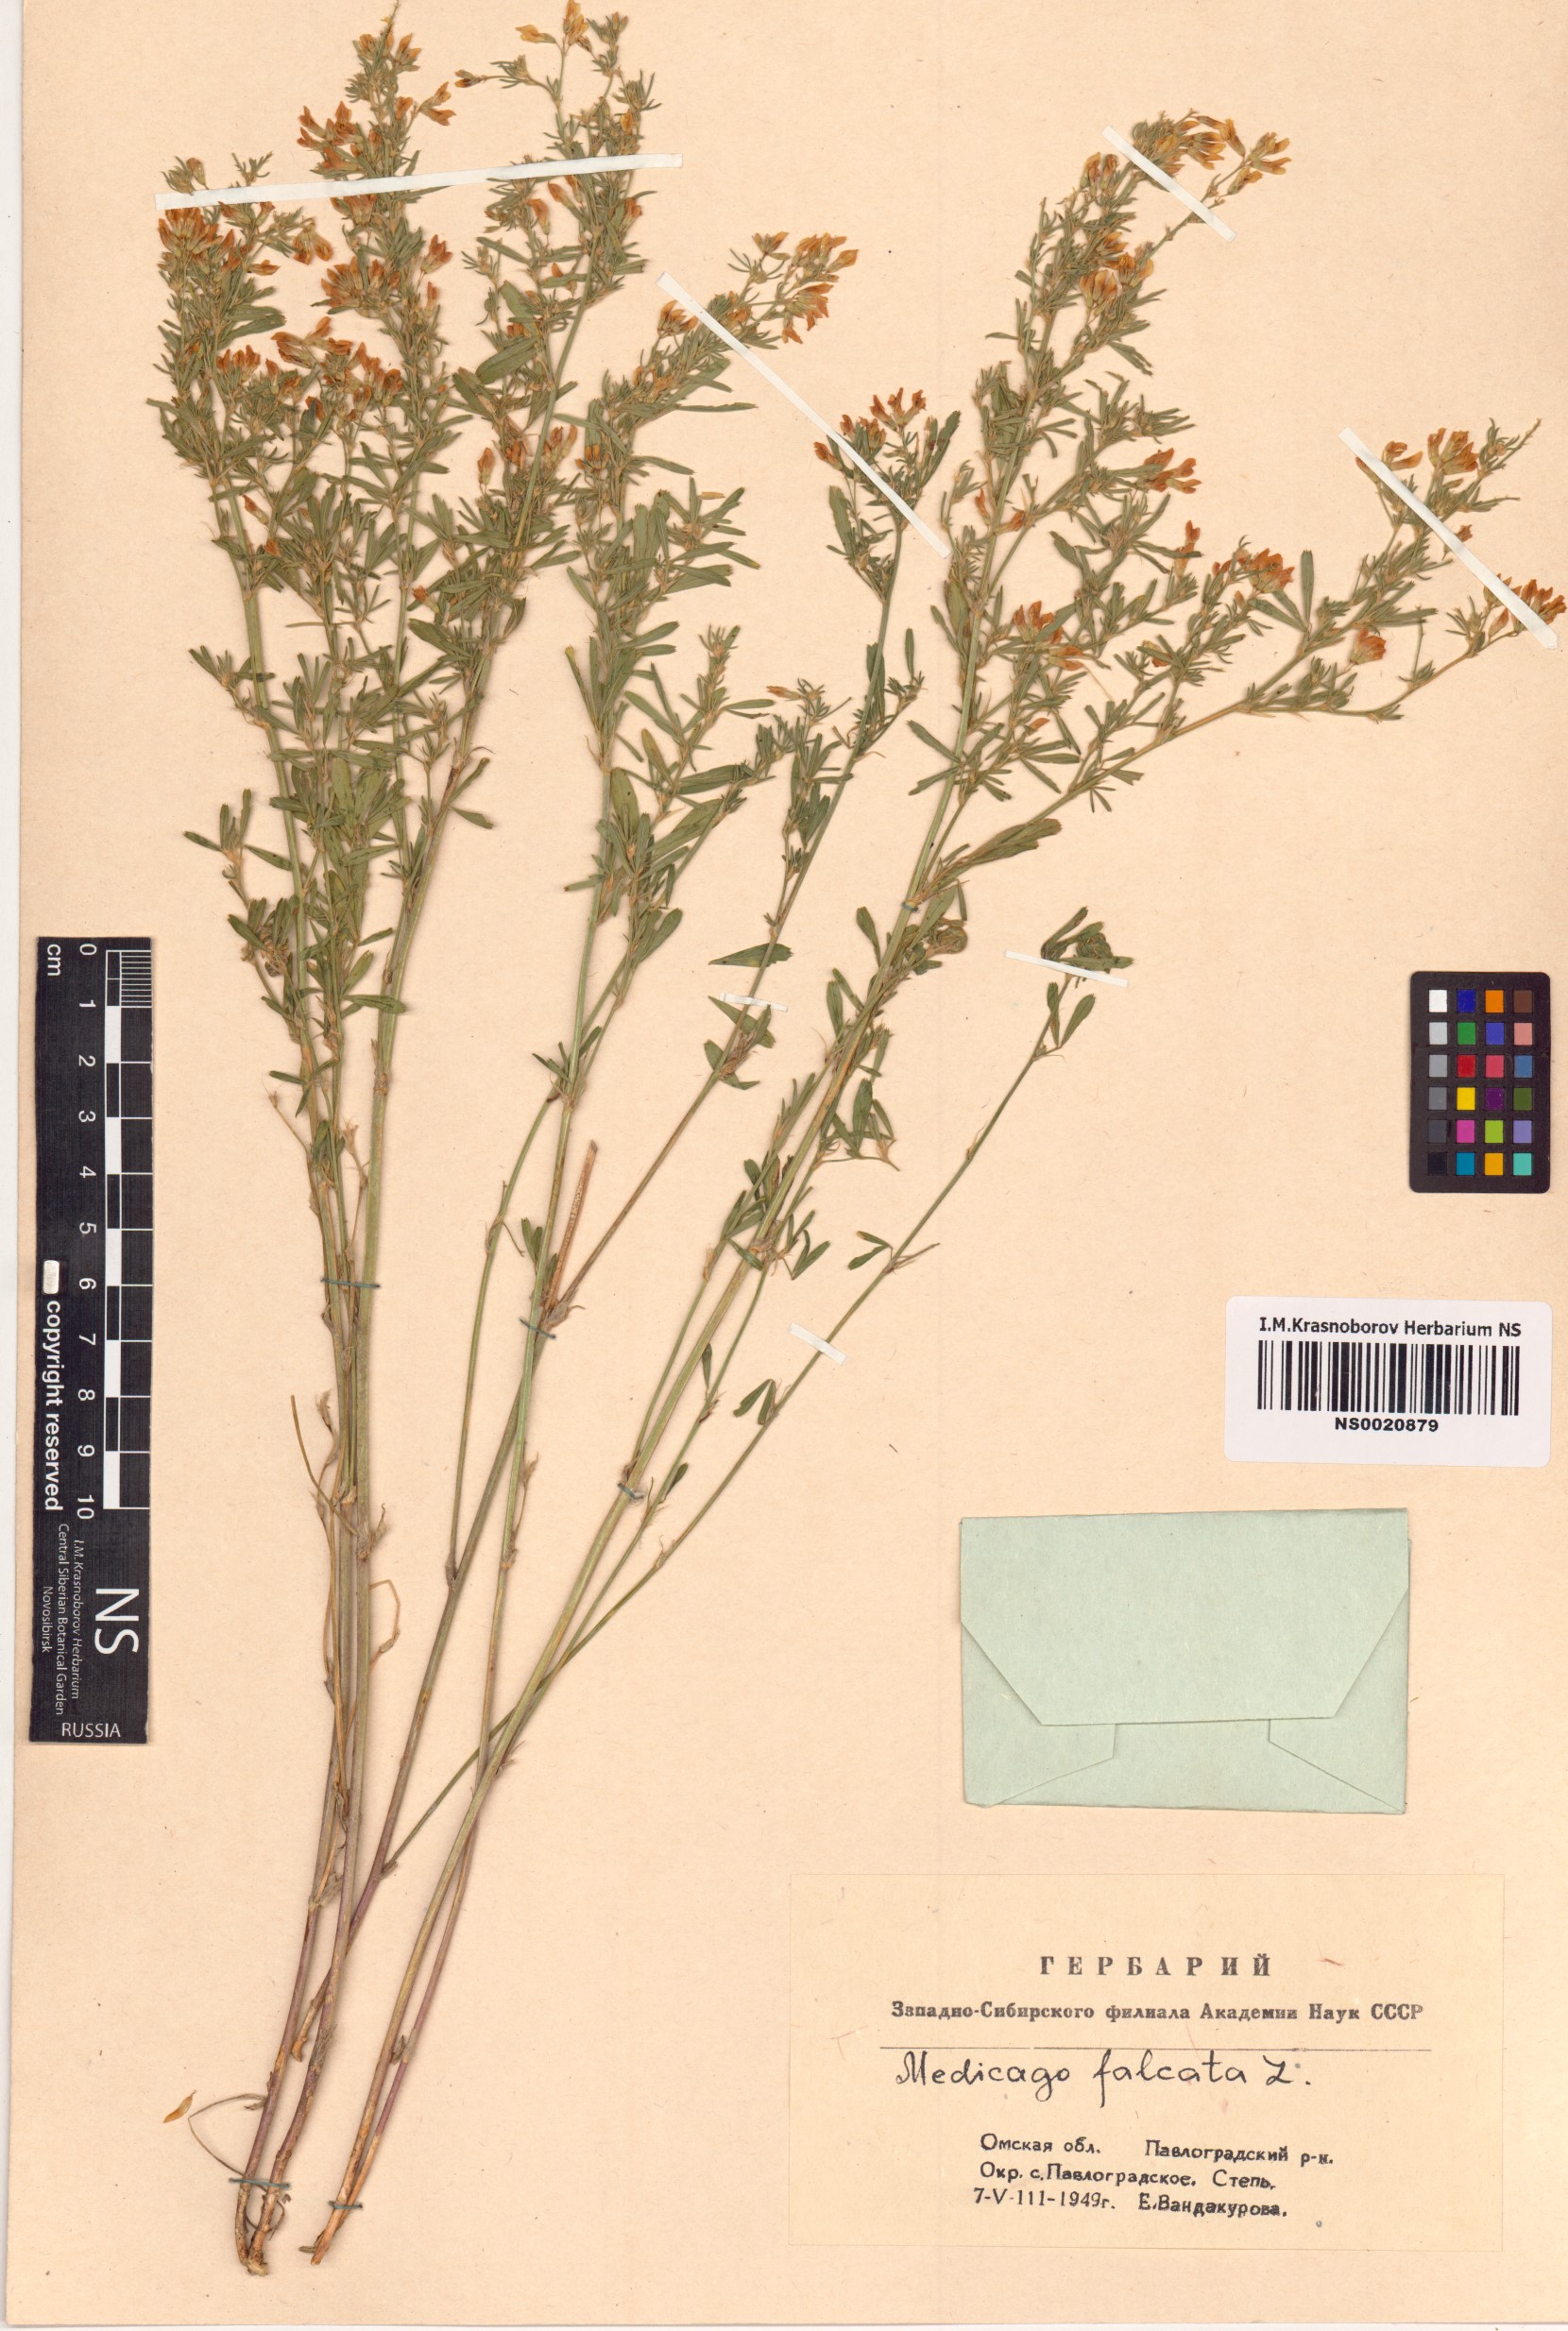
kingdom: Plantae
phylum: Tracheophyta
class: Magnoliopsida
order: Fabales
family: Fabaceae
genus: Medicago
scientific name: Medicago falcata
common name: Sickle medick
